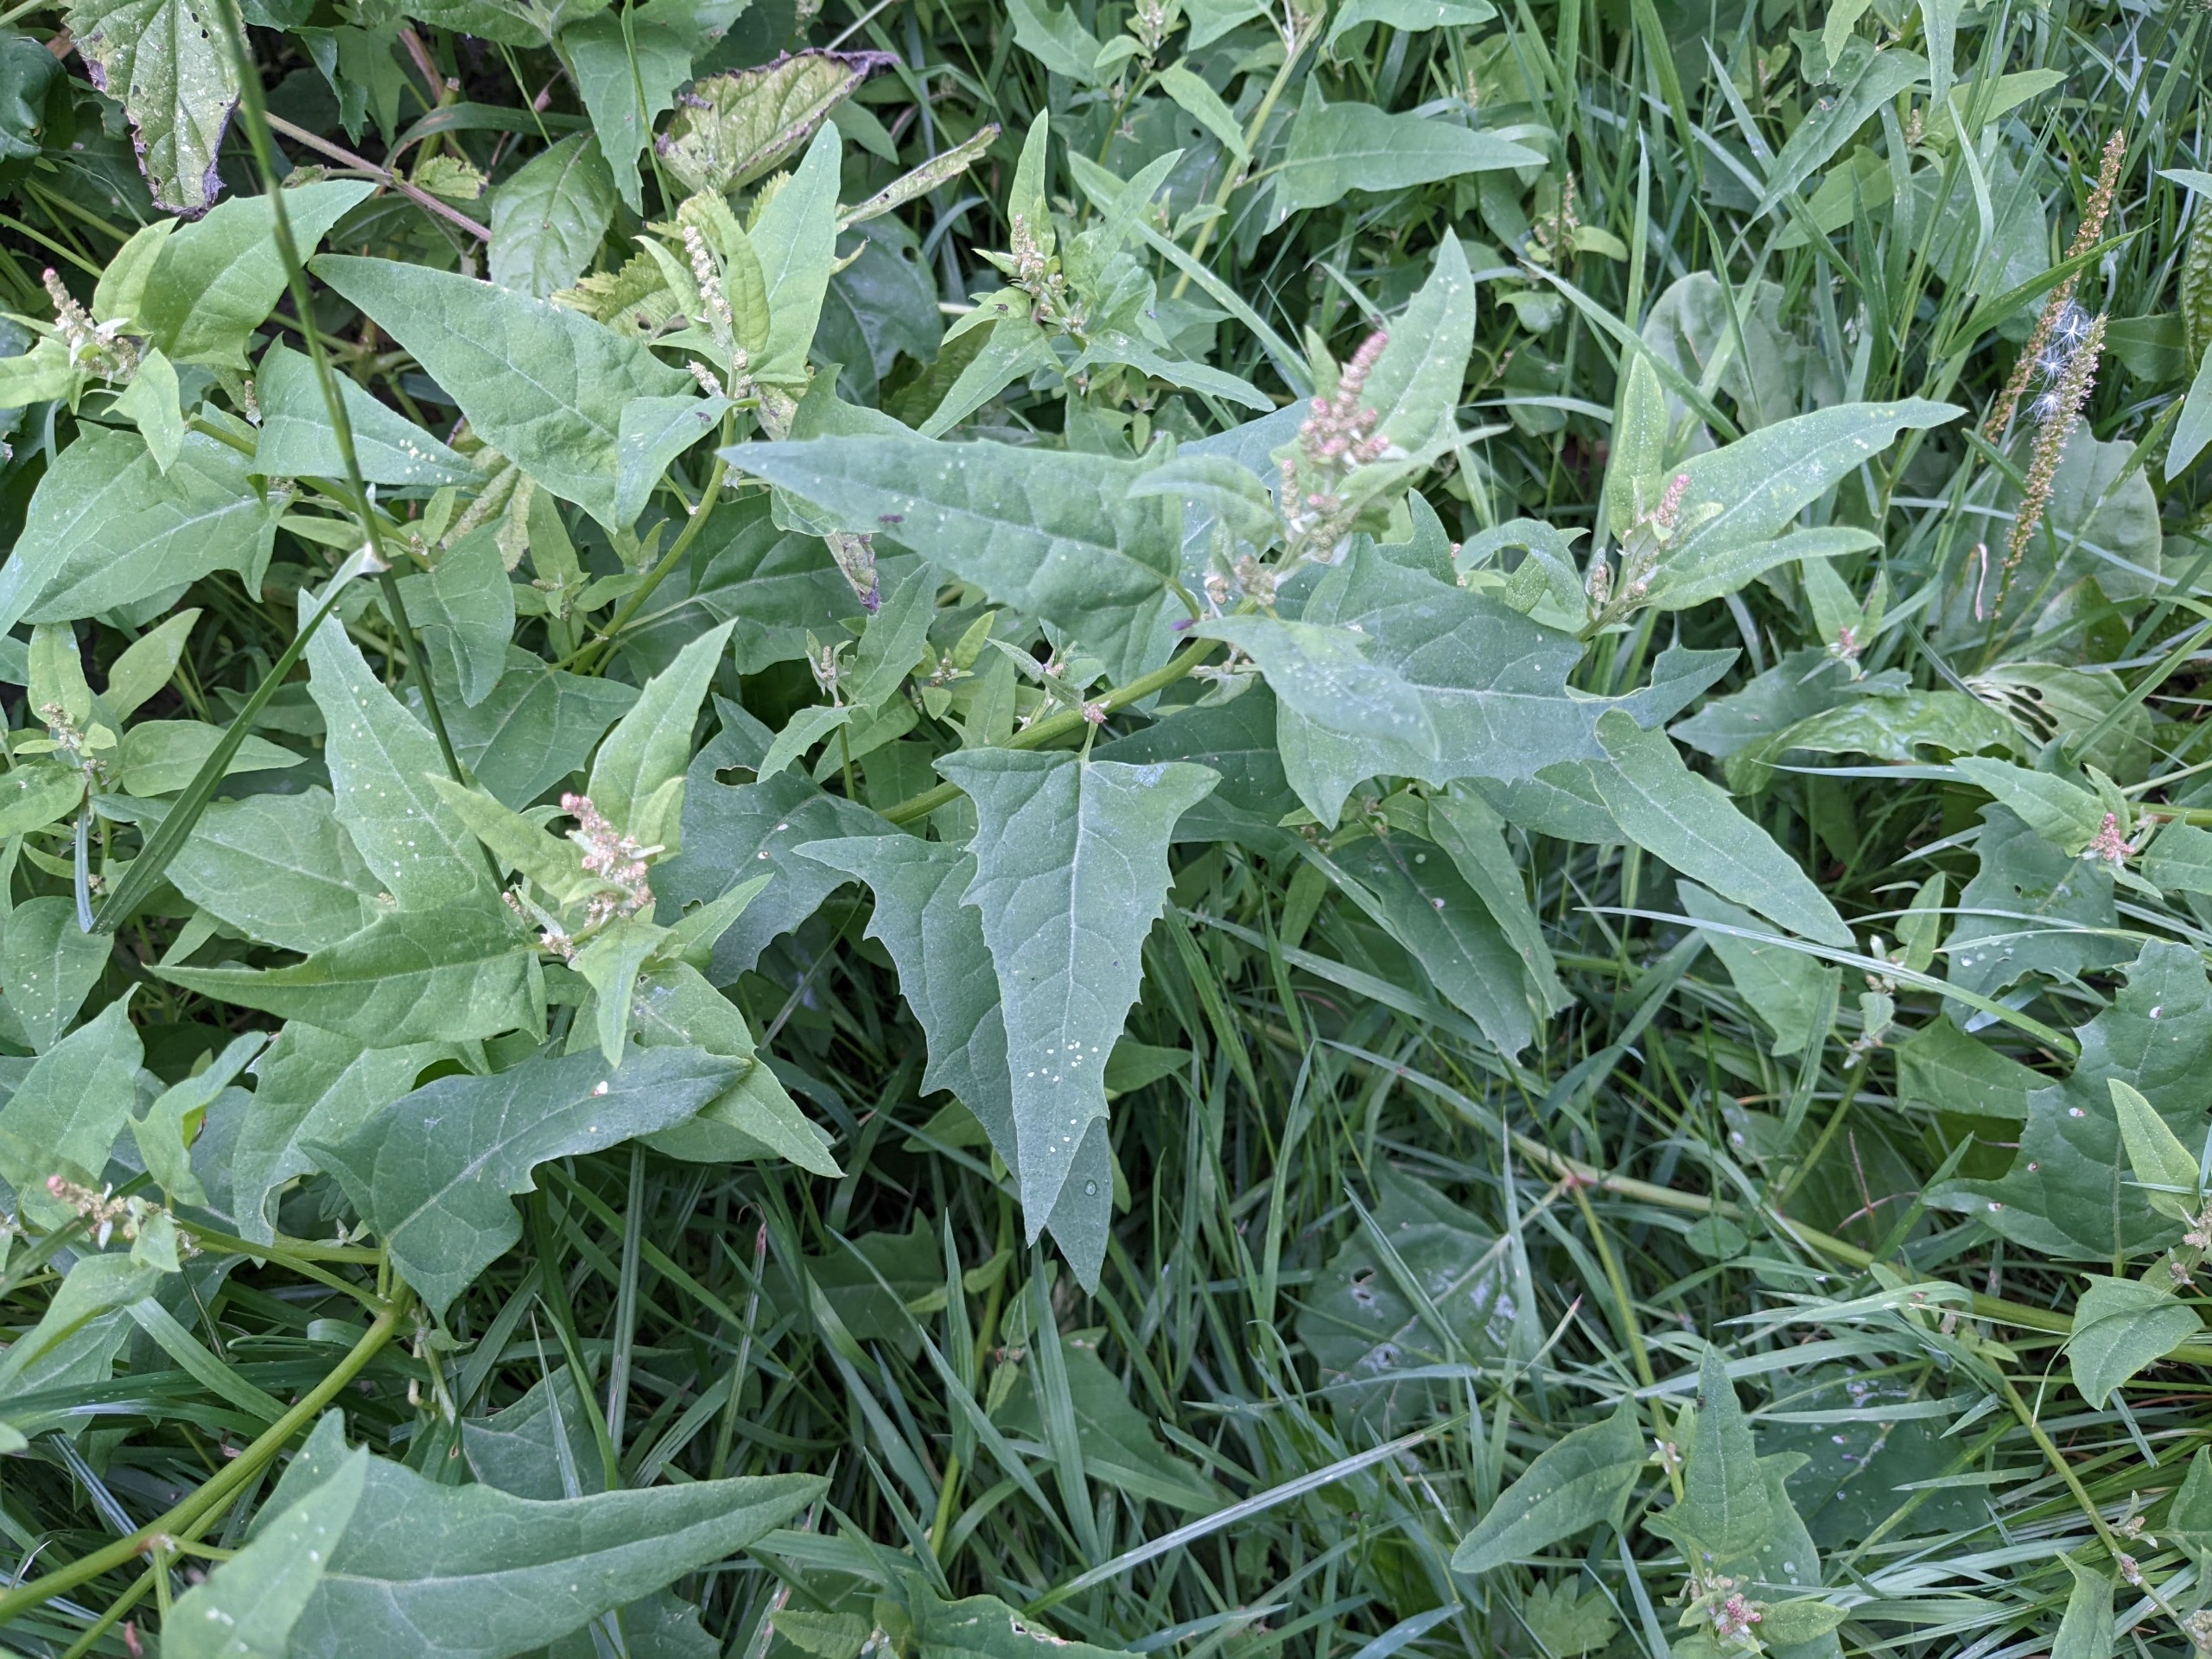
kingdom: Plantae
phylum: Tracheophyta
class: Magnoliopsida
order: Caryophyllales
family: Amaranthaceae
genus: Atriplex
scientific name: Atriplex prostrata
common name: Spyd-mælde
